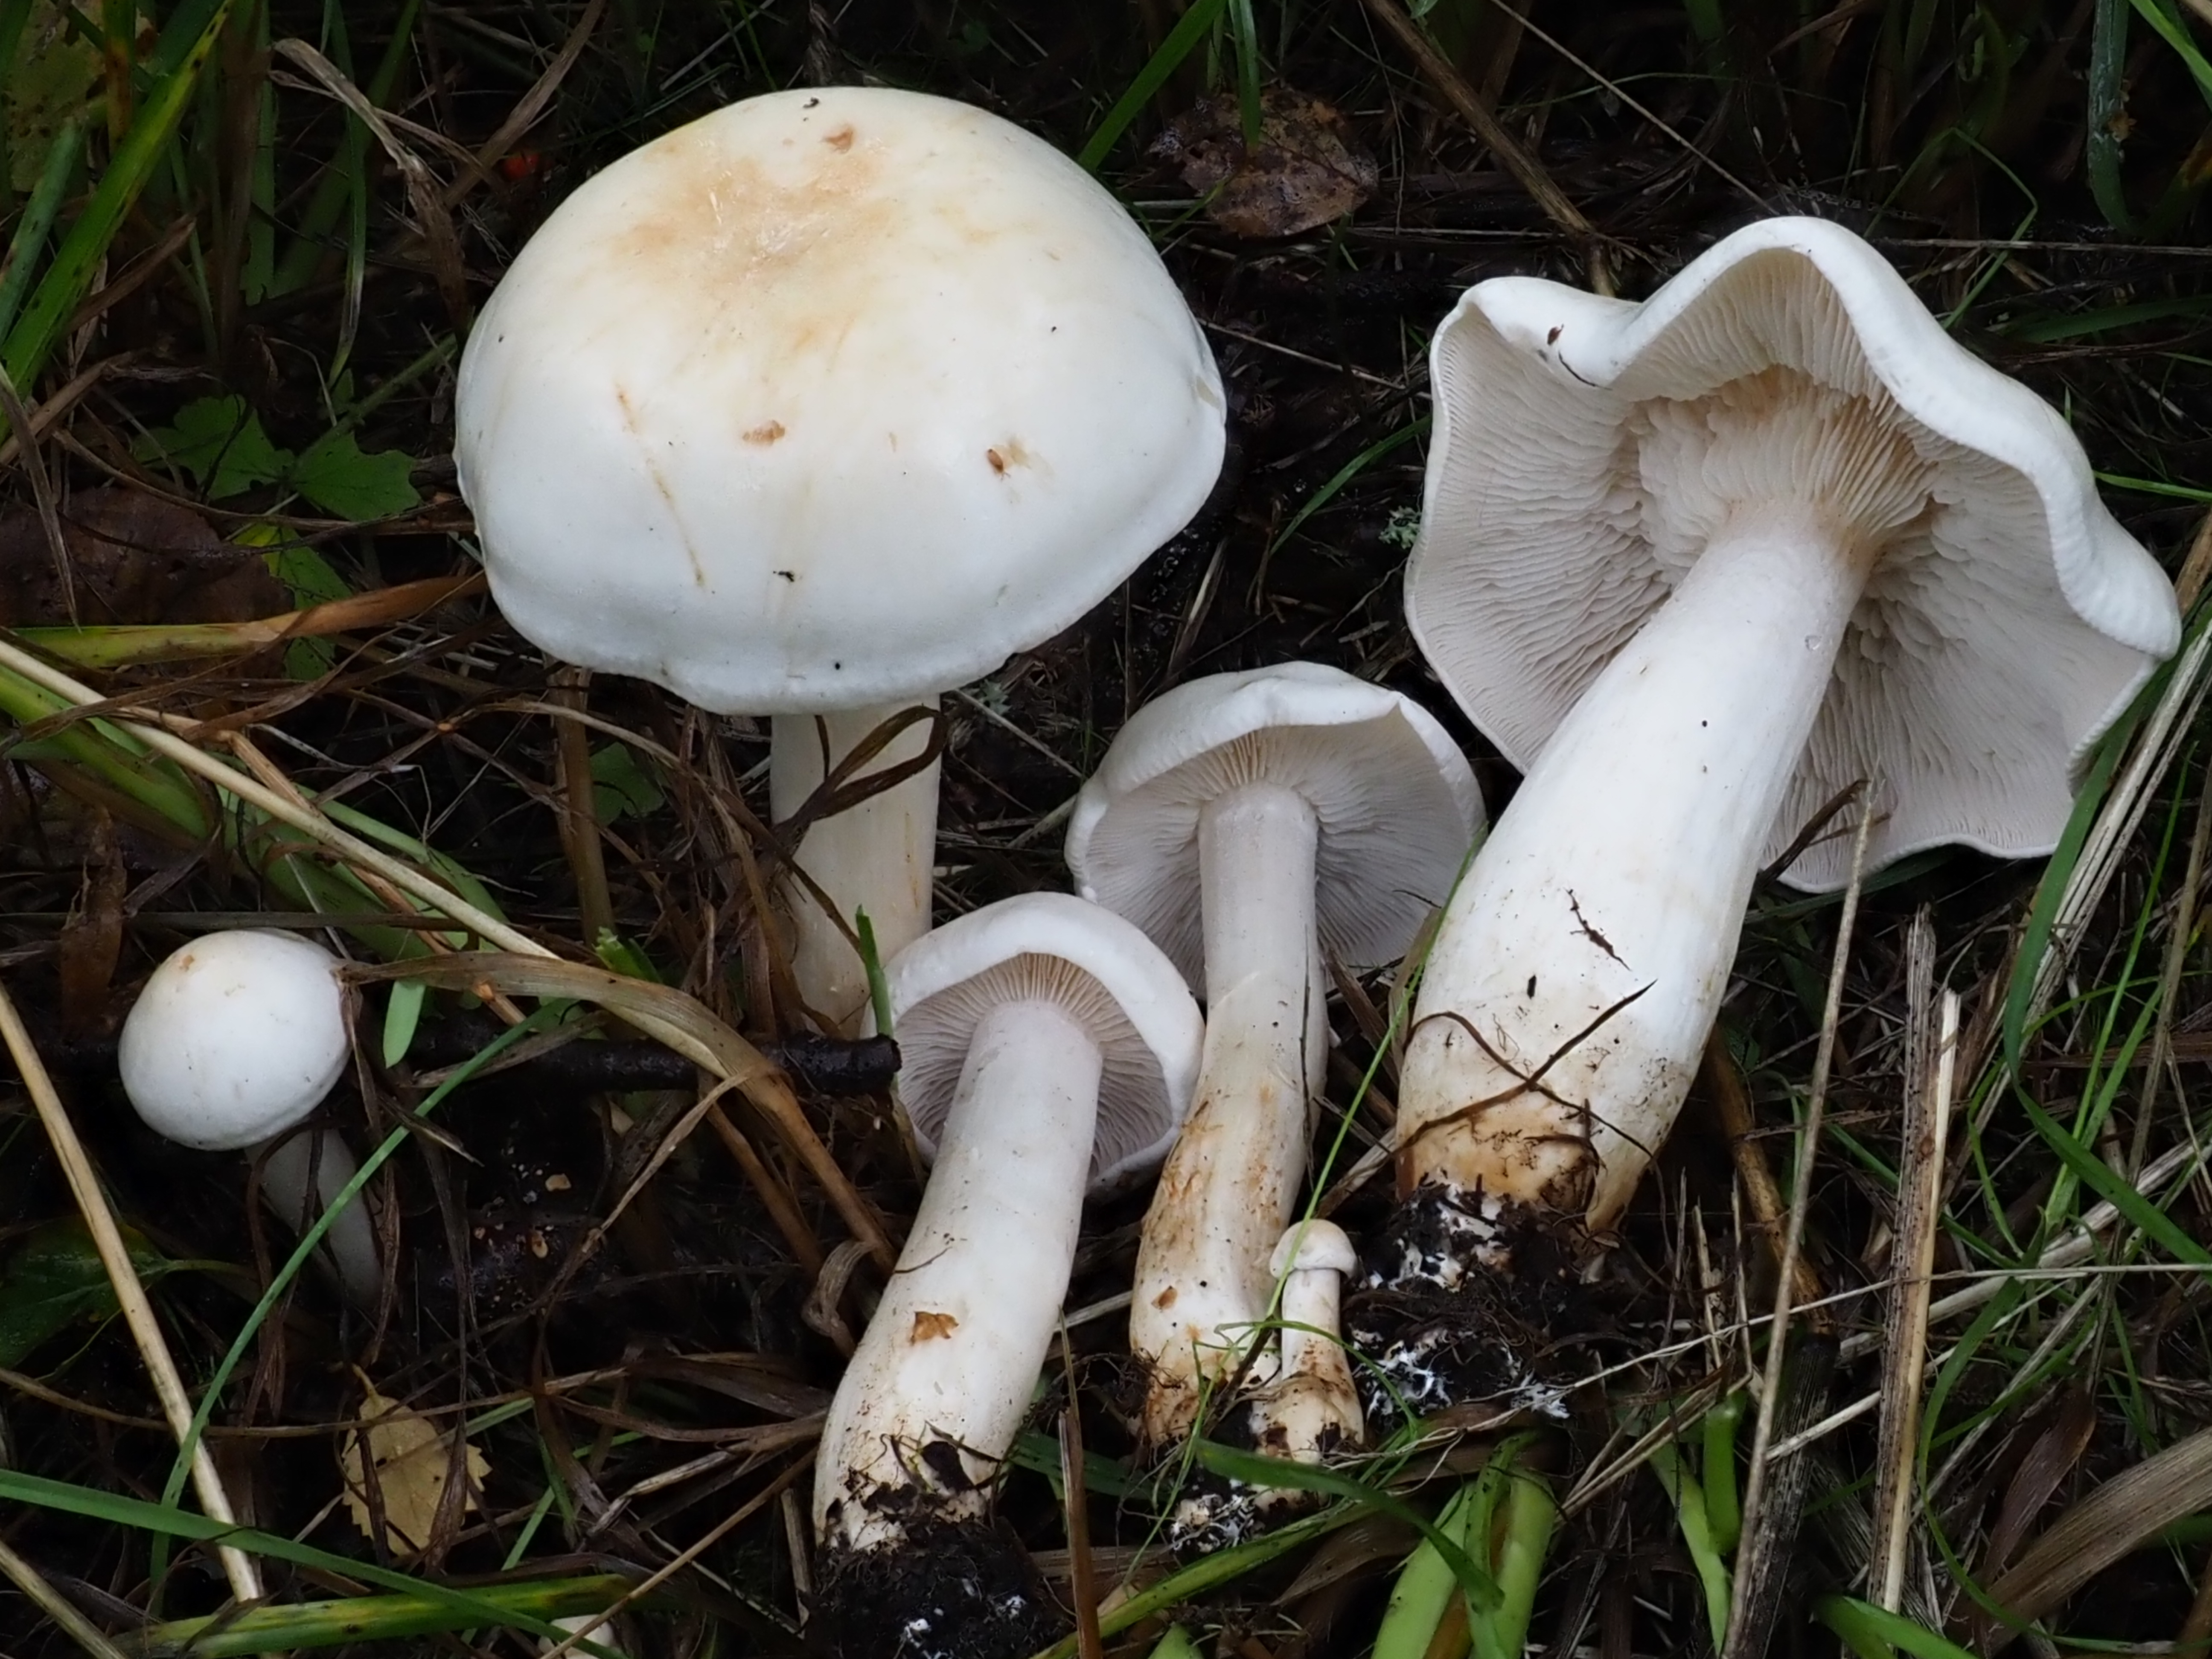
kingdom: Fungi
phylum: Basidiomycota
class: Agaricomycetes
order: Agaricales
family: Tricholomataceae
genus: Tricholoma
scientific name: Tricholoma stiparophyllum
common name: Chemical knight
